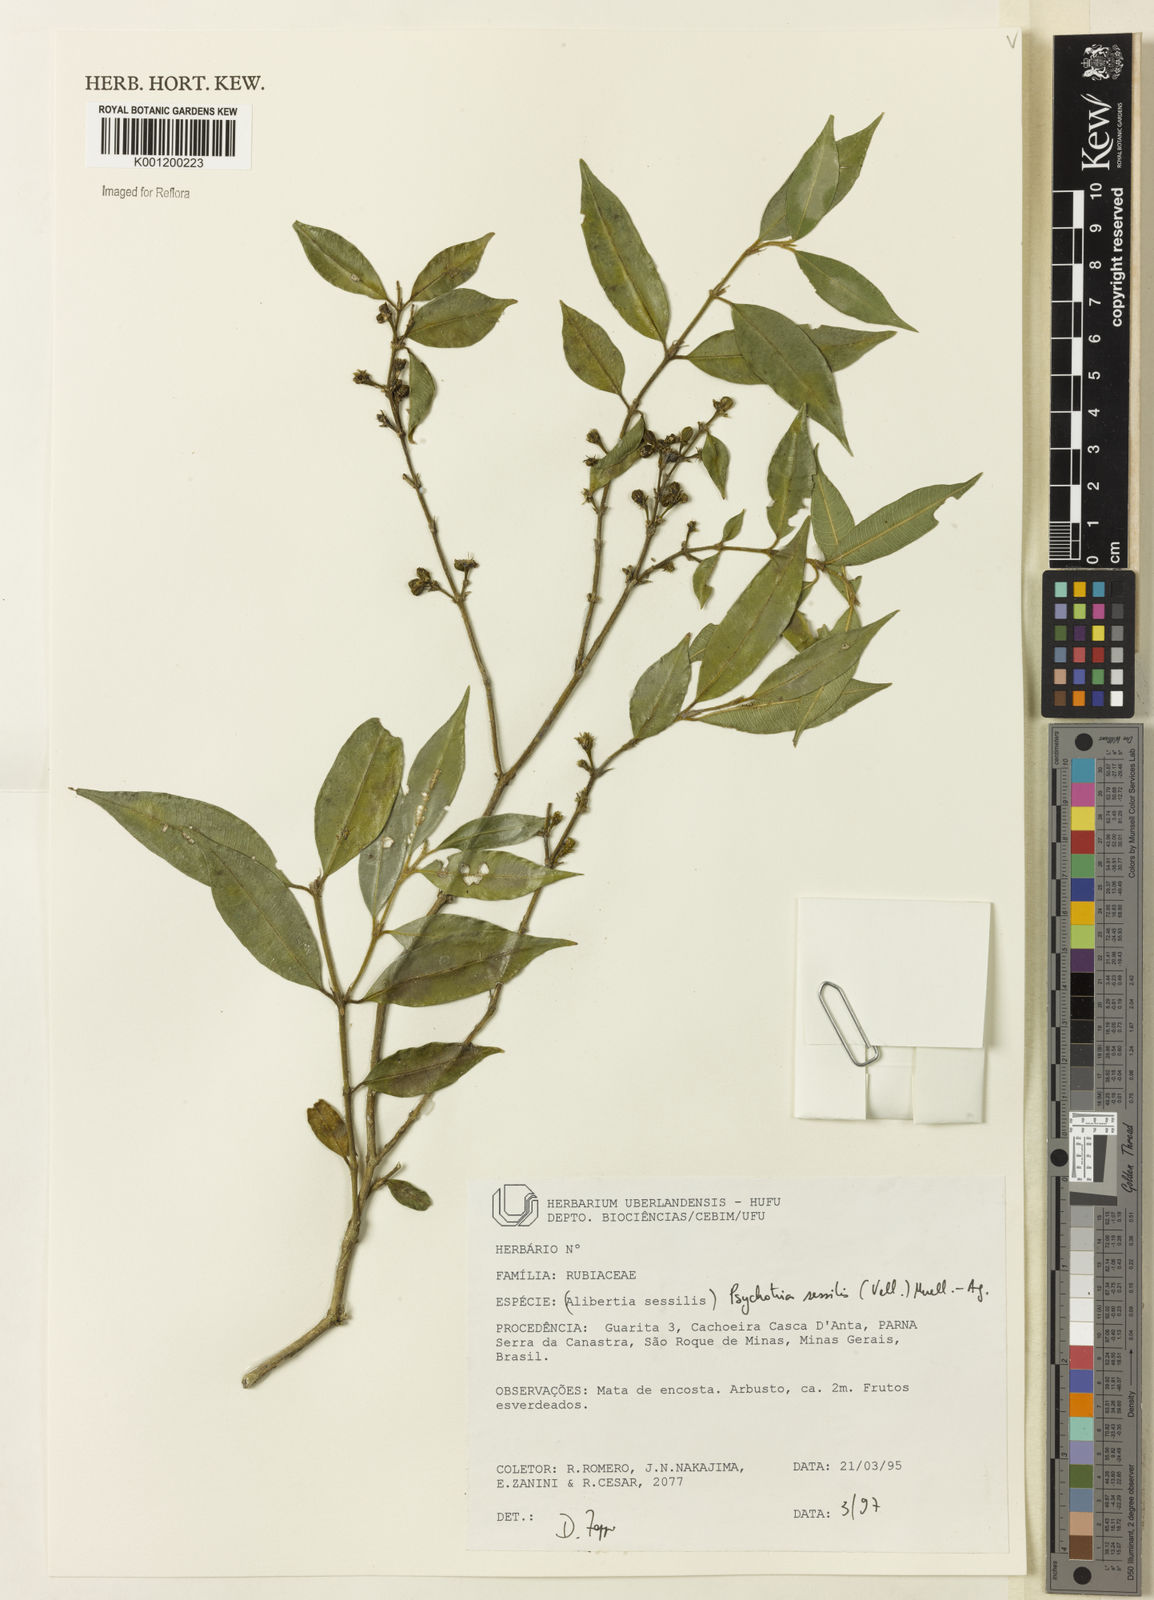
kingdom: Plantae
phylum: Tracheophyta
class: Magnoliopsida
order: Gentianales
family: Rubiaceae
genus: Rudgea
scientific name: Rudgea sessilis
